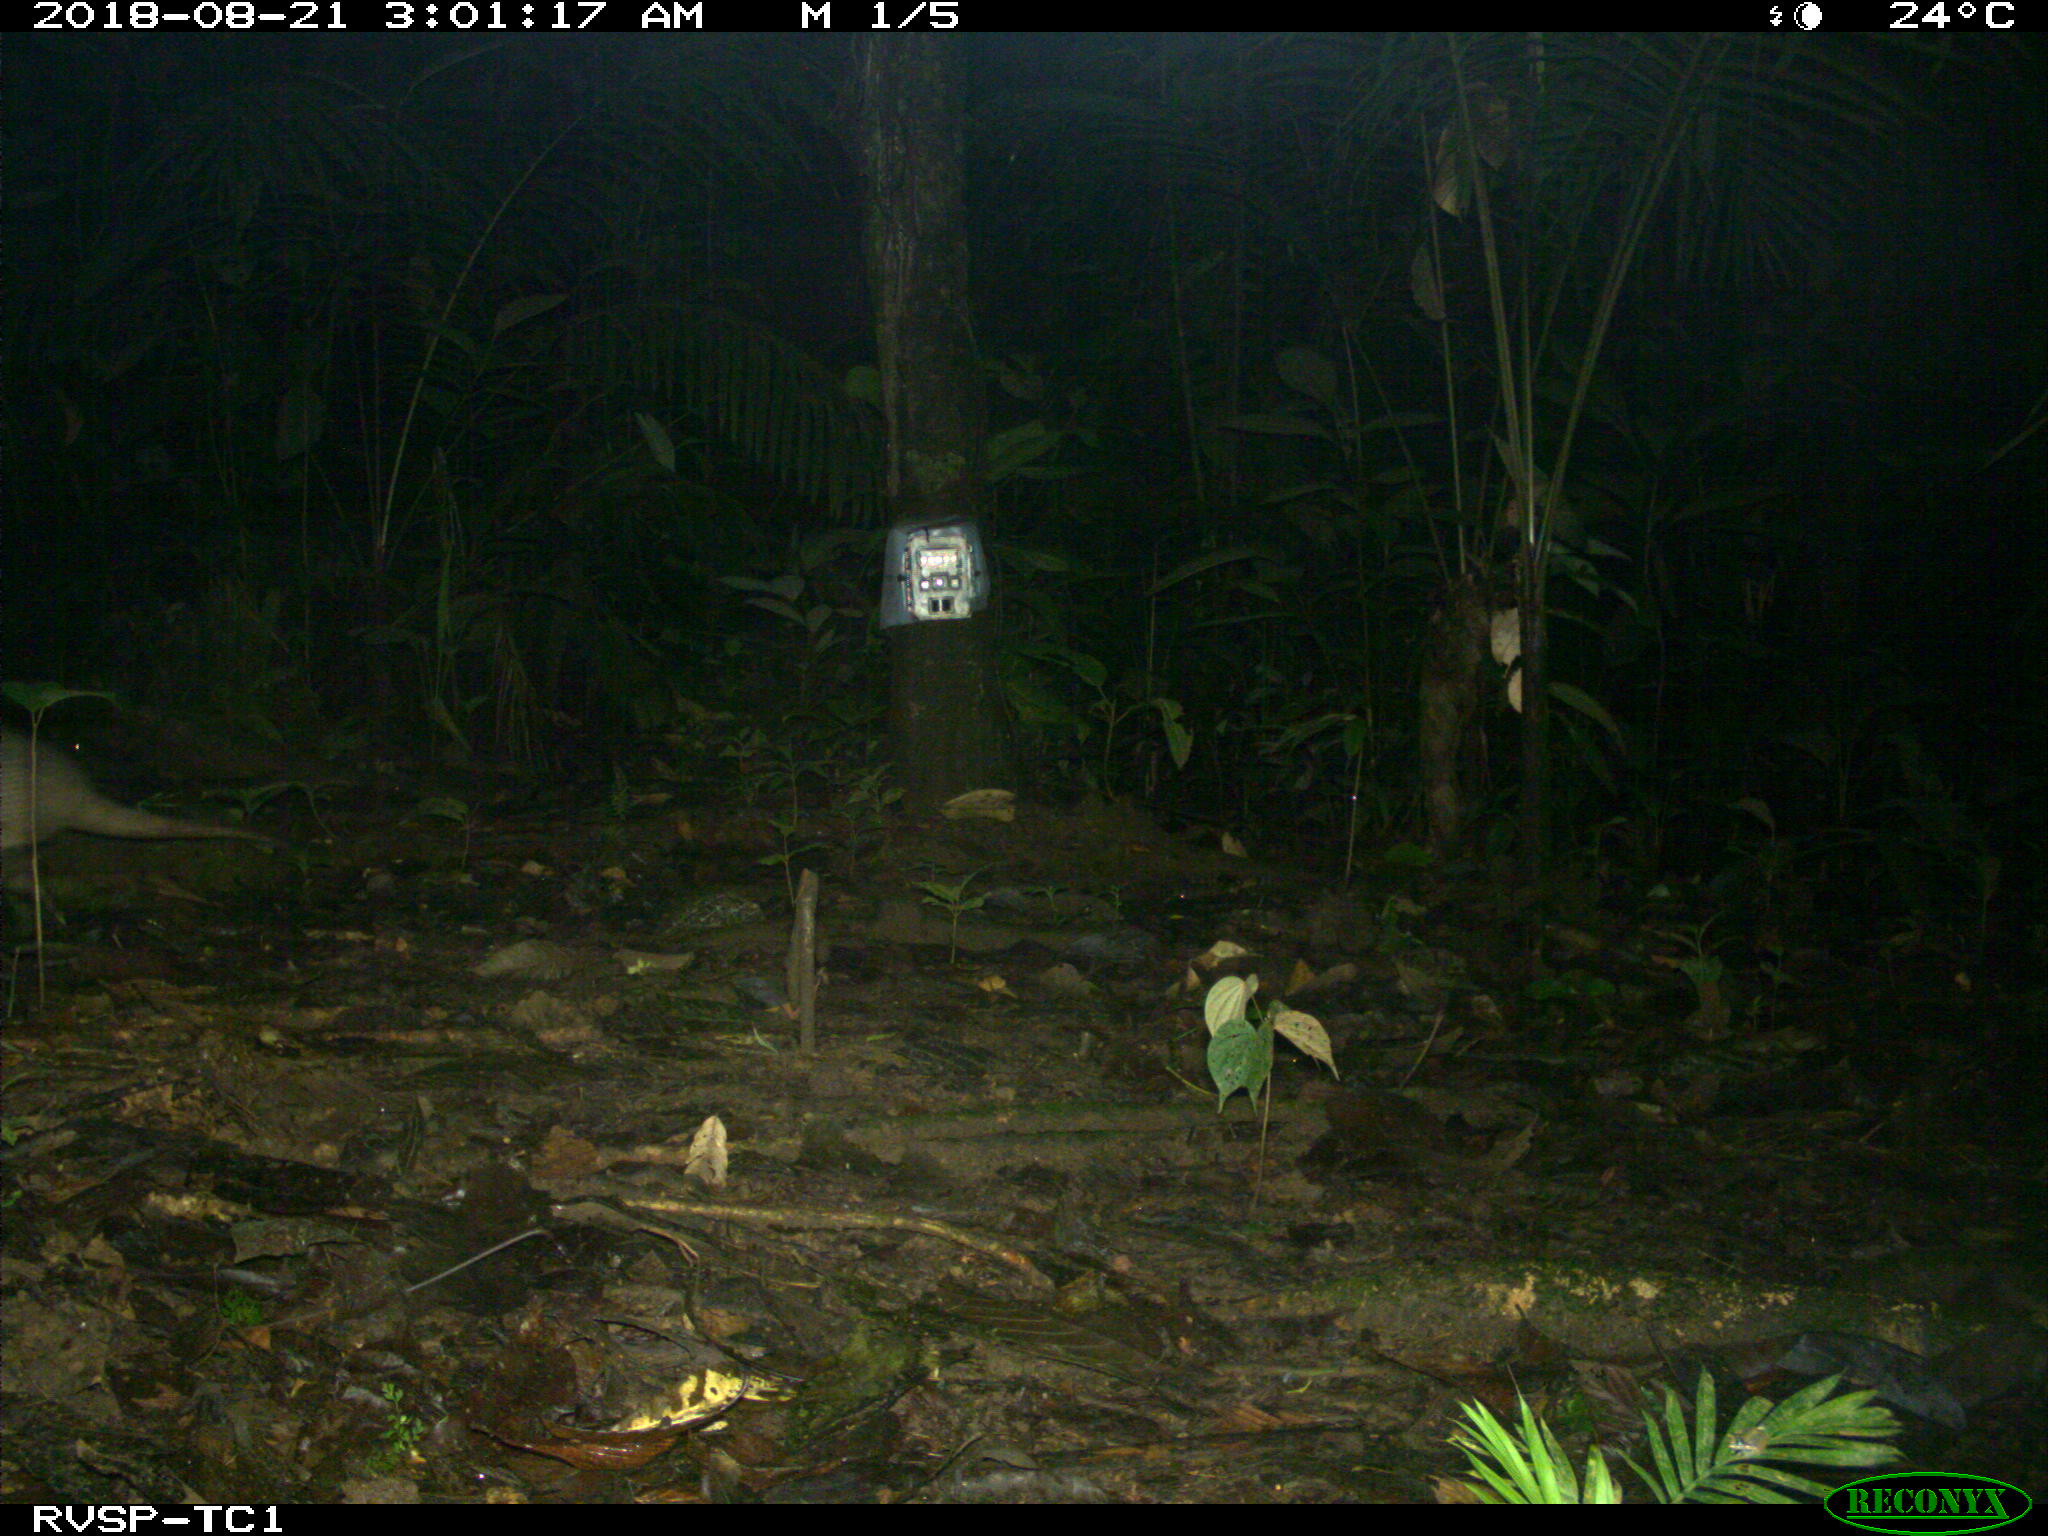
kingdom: Animalia
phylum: Chordata
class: Mammalia
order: Cingulata
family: Dasypodidae
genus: Dasypus
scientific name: Dasypus novemcinctus
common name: Nine-banded armadillo
